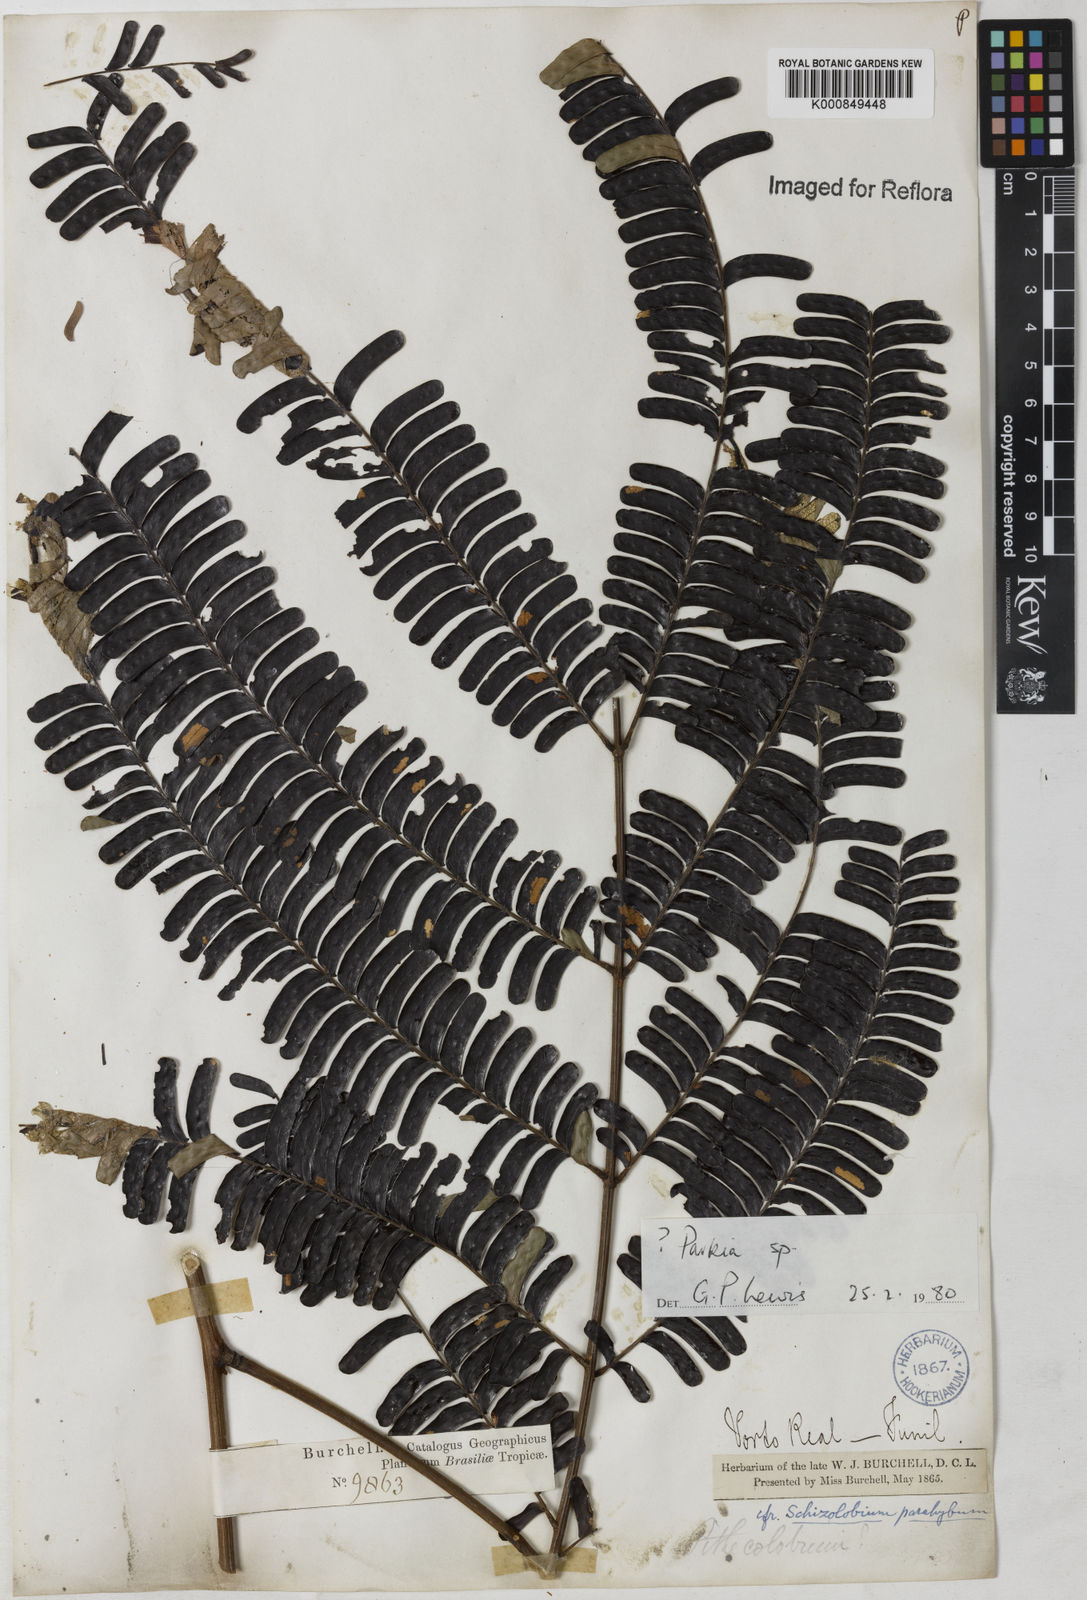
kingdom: Plantae
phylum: Tracheophyta
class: Magnoliopsida
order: Fabales
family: Fabaceae
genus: Parkia
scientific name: Parkia
